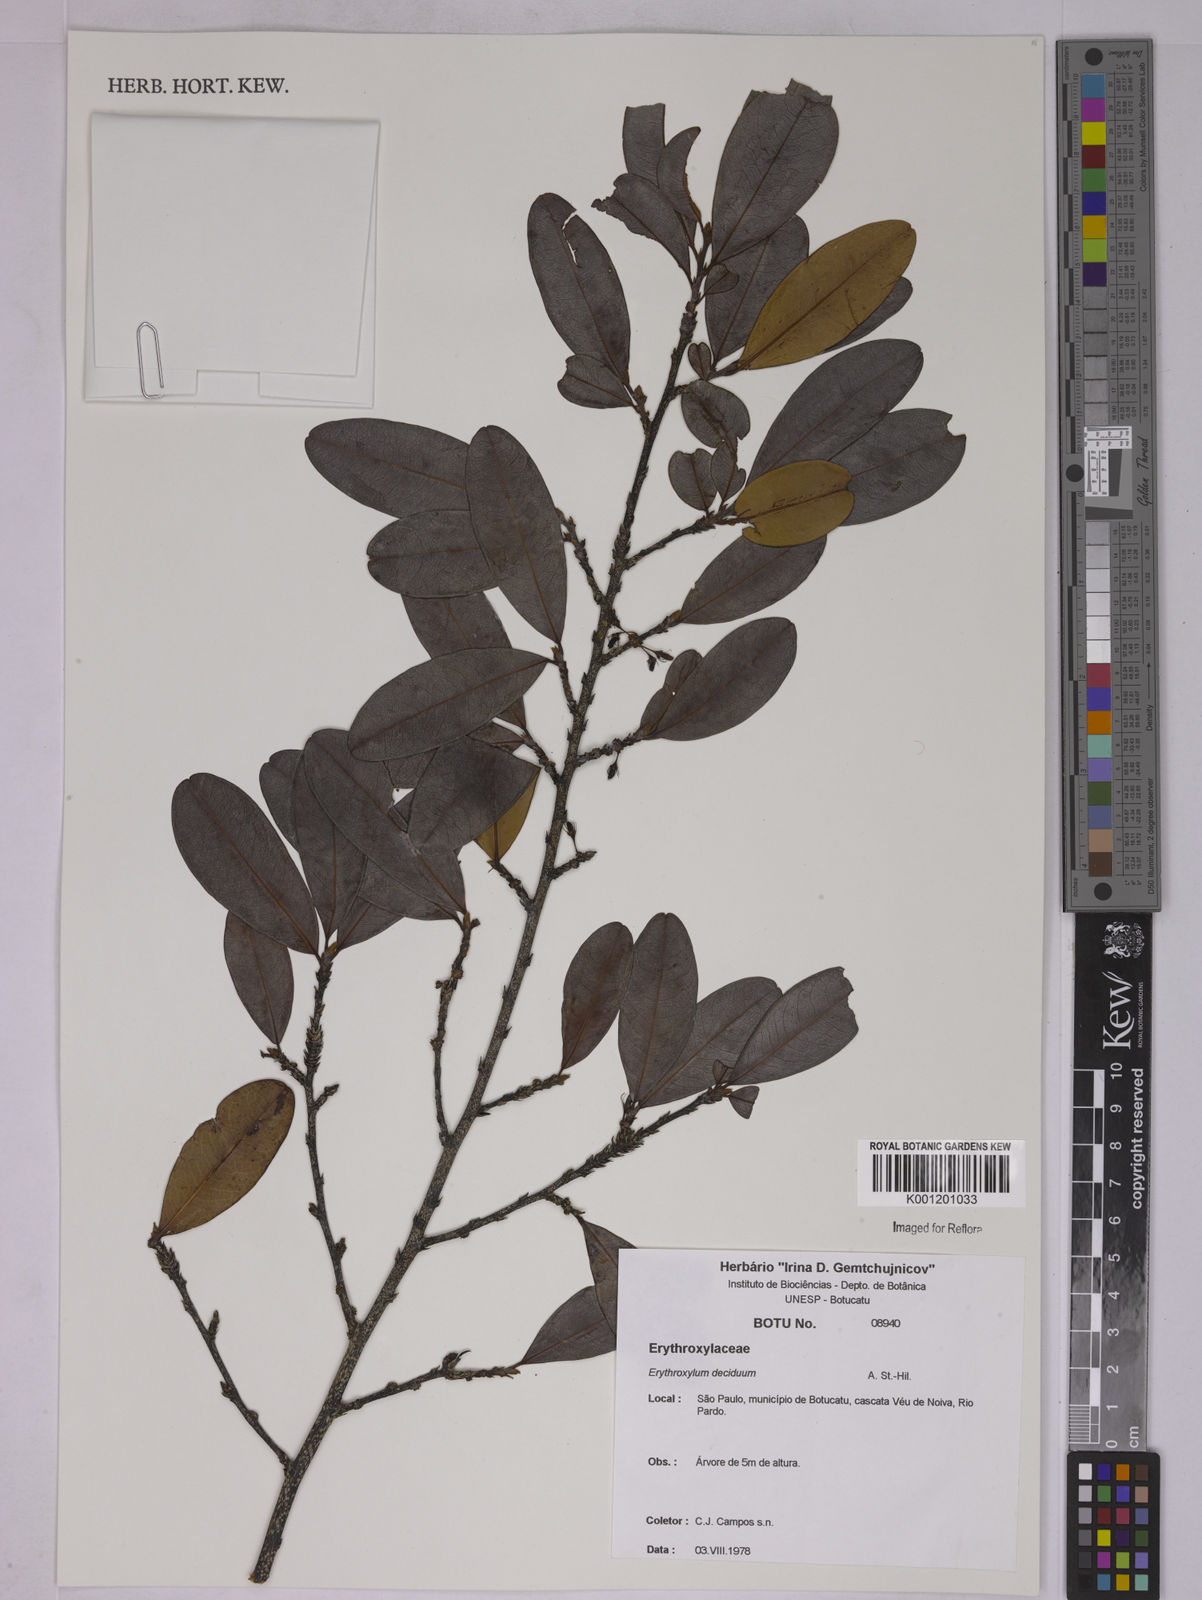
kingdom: Plantae
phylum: Tracheophyta
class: Magnoliopsida
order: Malpighiales
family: Erythroxylaceae
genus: Erythroxylum
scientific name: Erythroxylum deciduum
